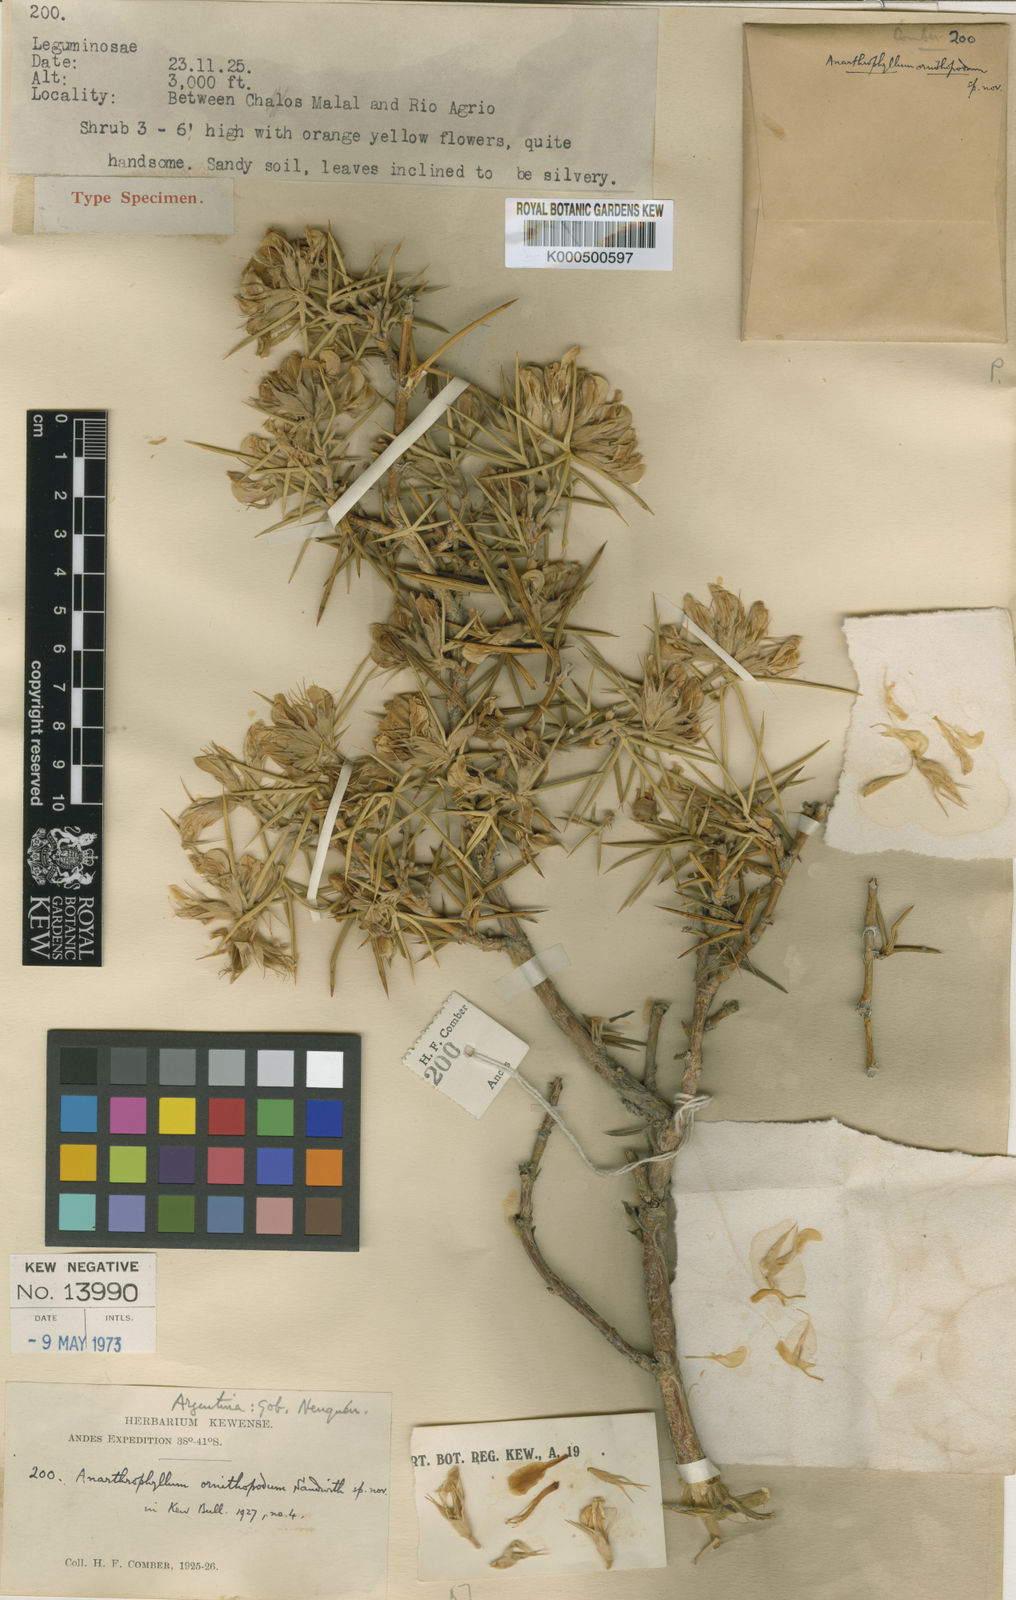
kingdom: Plantae
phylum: Tracheophyta
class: Magnoliopsida
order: Fabales
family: Fabaceae
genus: Anarthrophyllum
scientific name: Anarthrophyllum ornithopodum
